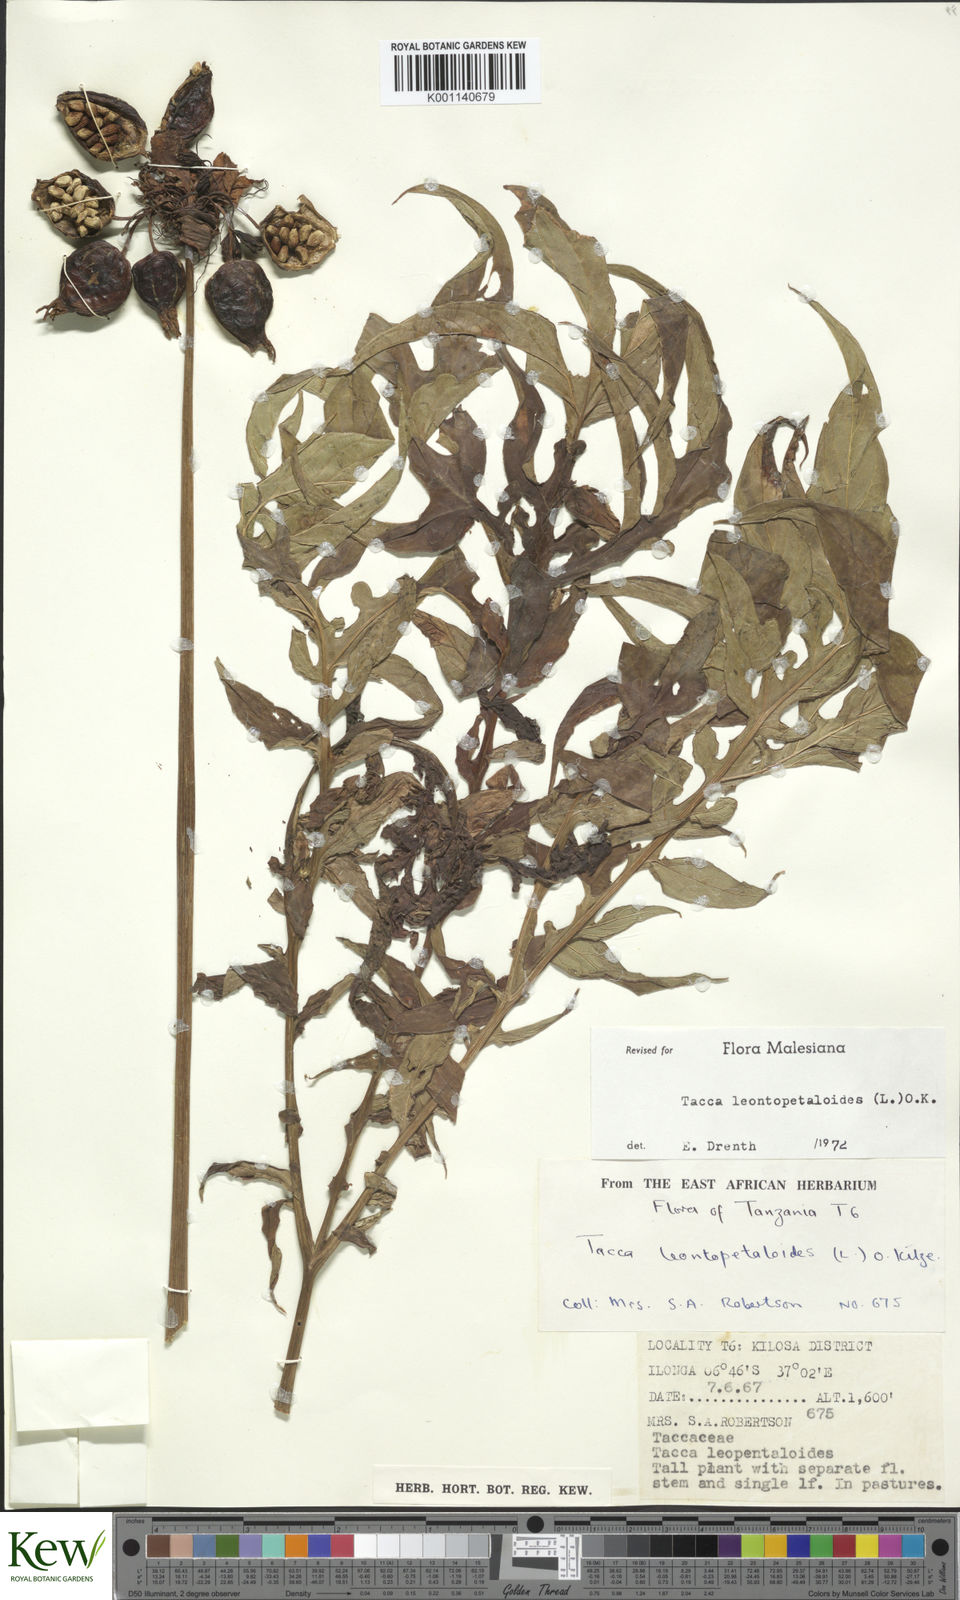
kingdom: Plantae
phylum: Tracheophyta
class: Liliopsida
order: Dioscoreales
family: Dioscoreaceae
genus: Tacca
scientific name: Tacca leontopetaloides
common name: Arrowroot
